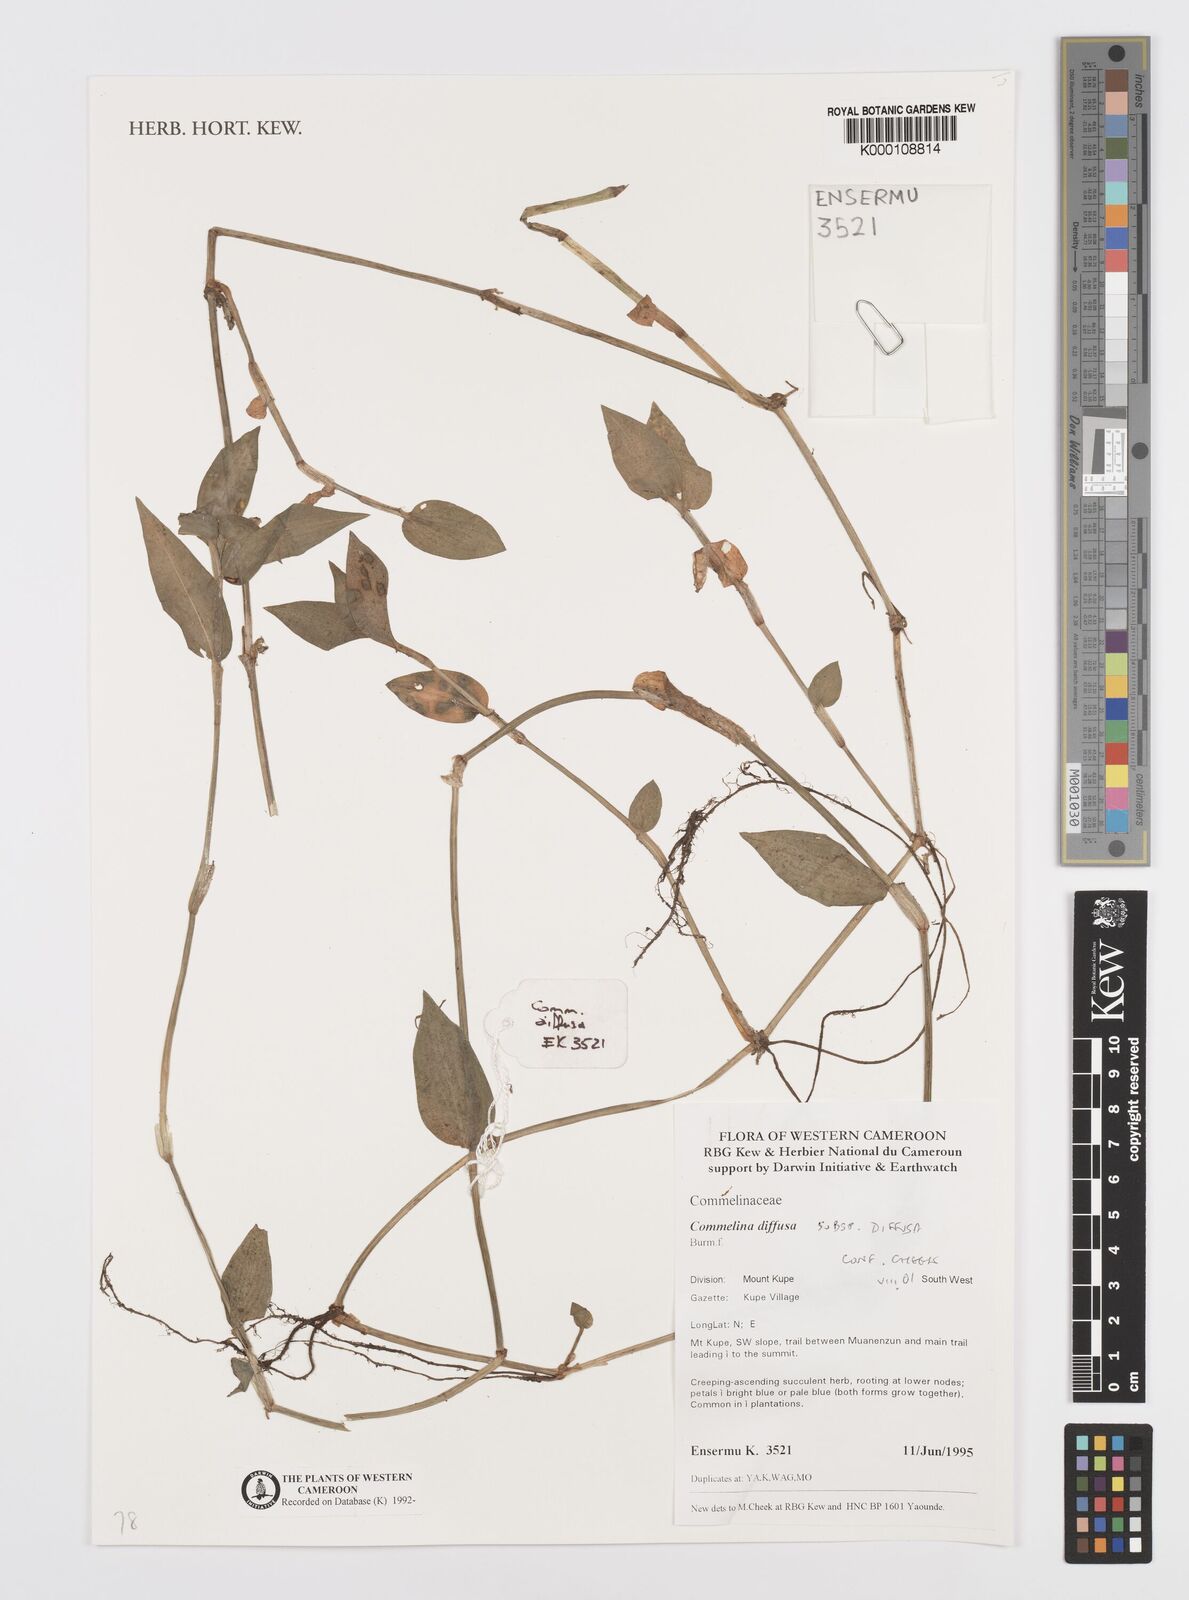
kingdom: Plantae
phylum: Tracheophyta
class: Liliopsida
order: Commelinales
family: Commelinaceae
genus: Commelina
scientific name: Commelina diffusa
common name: Climbing dayflower
